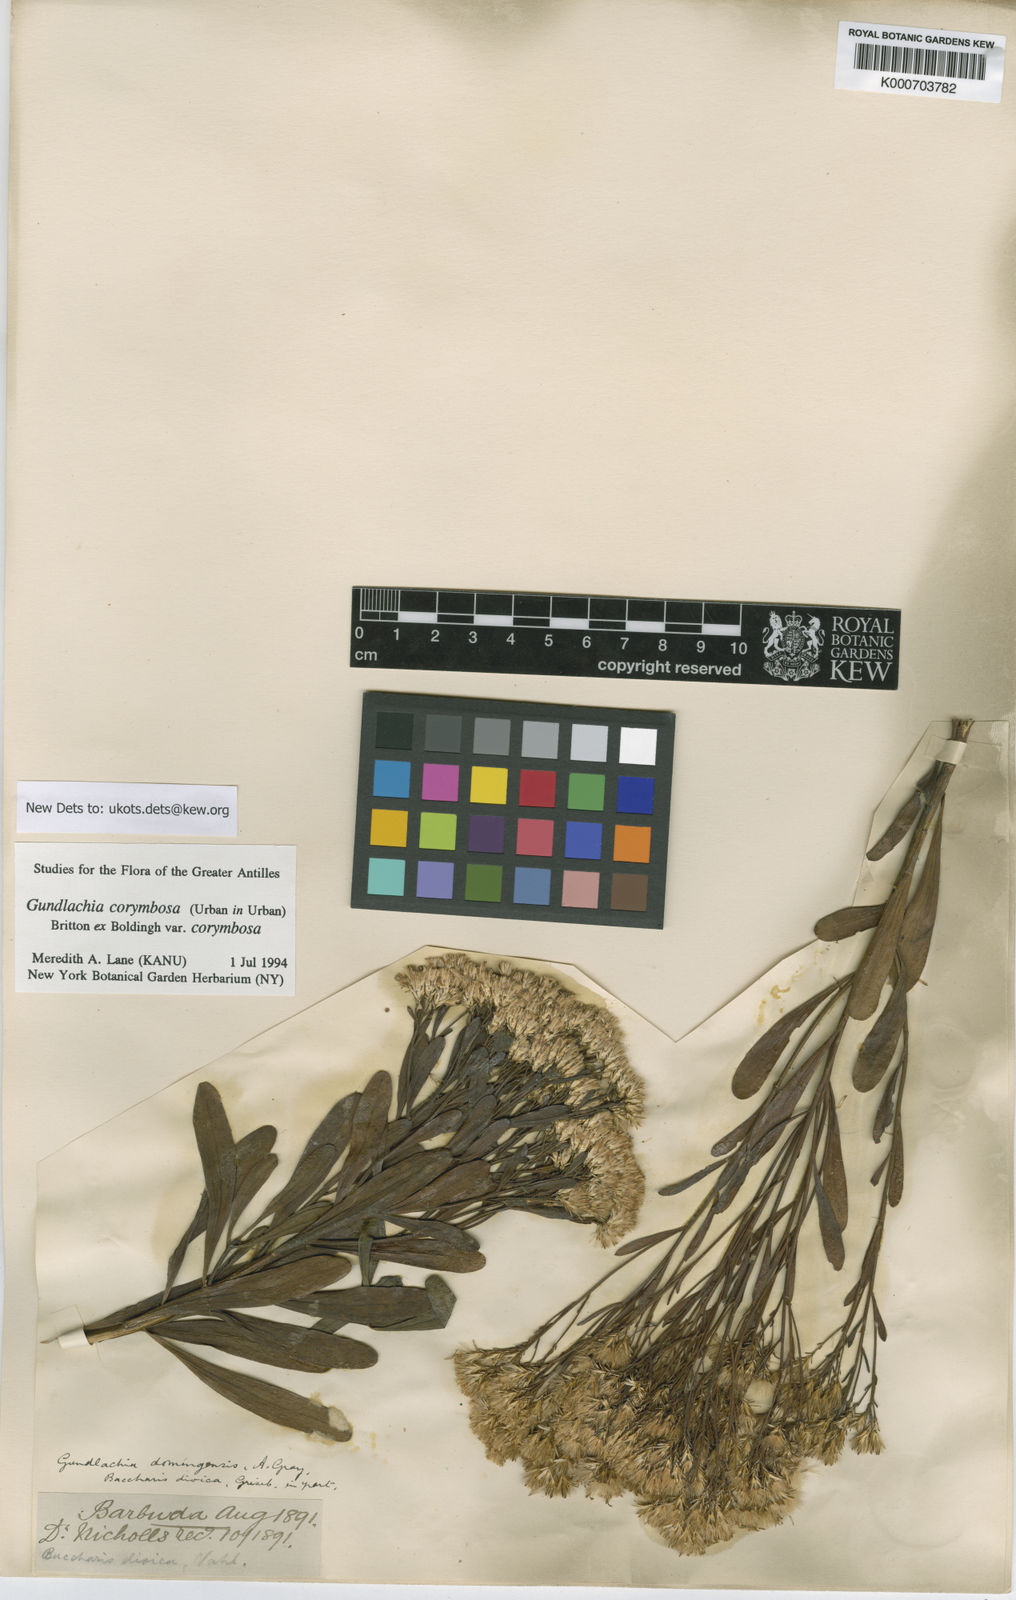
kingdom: Plantae
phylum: Tracheophyta
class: Magnoliopsida
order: Asterales
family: Asteraceae
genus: Gundlachia
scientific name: Gundlachia corymbosa
